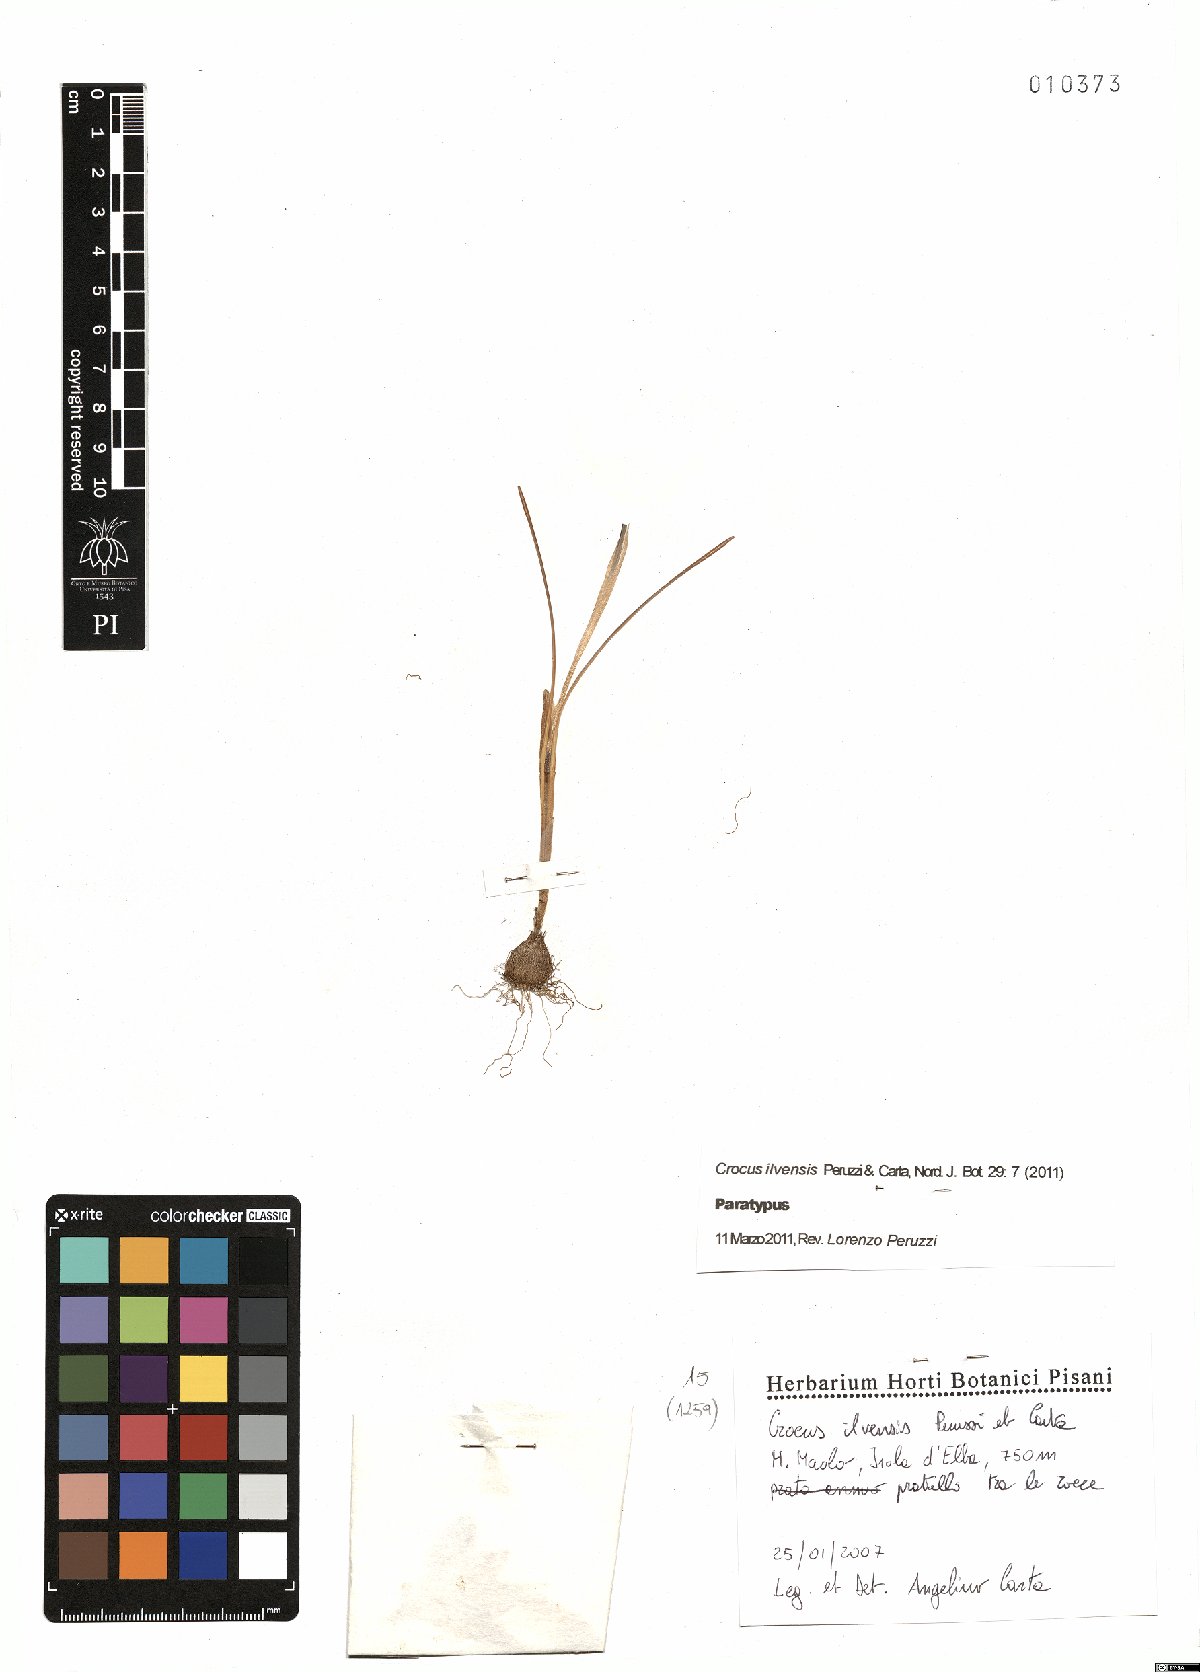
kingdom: Plantae
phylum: Tracheophyta
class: Liliopsida
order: Asparagales
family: Iridaceae
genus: Crocus
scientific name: Crocus ilvensis
